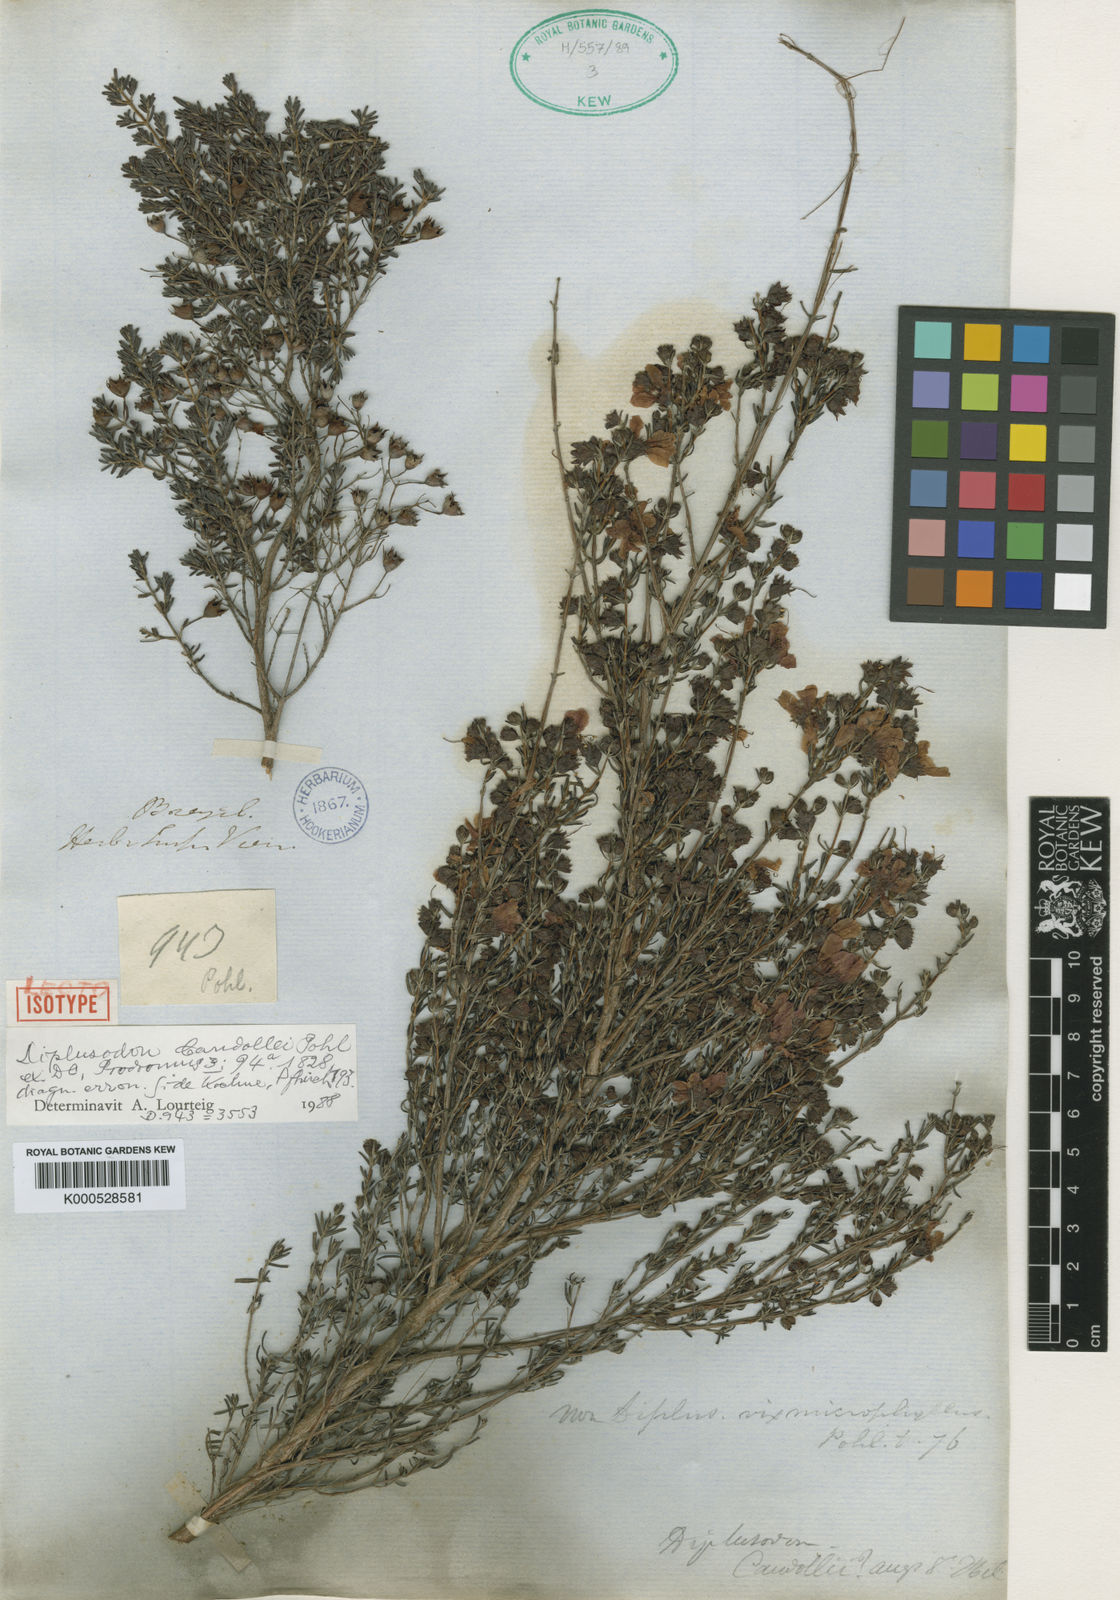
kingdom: Plantae
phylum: Tracheophyta
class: Magnoliopsida
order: Myrtales
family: Lythraceae
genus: Diplusodon
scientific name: Diplusodon
